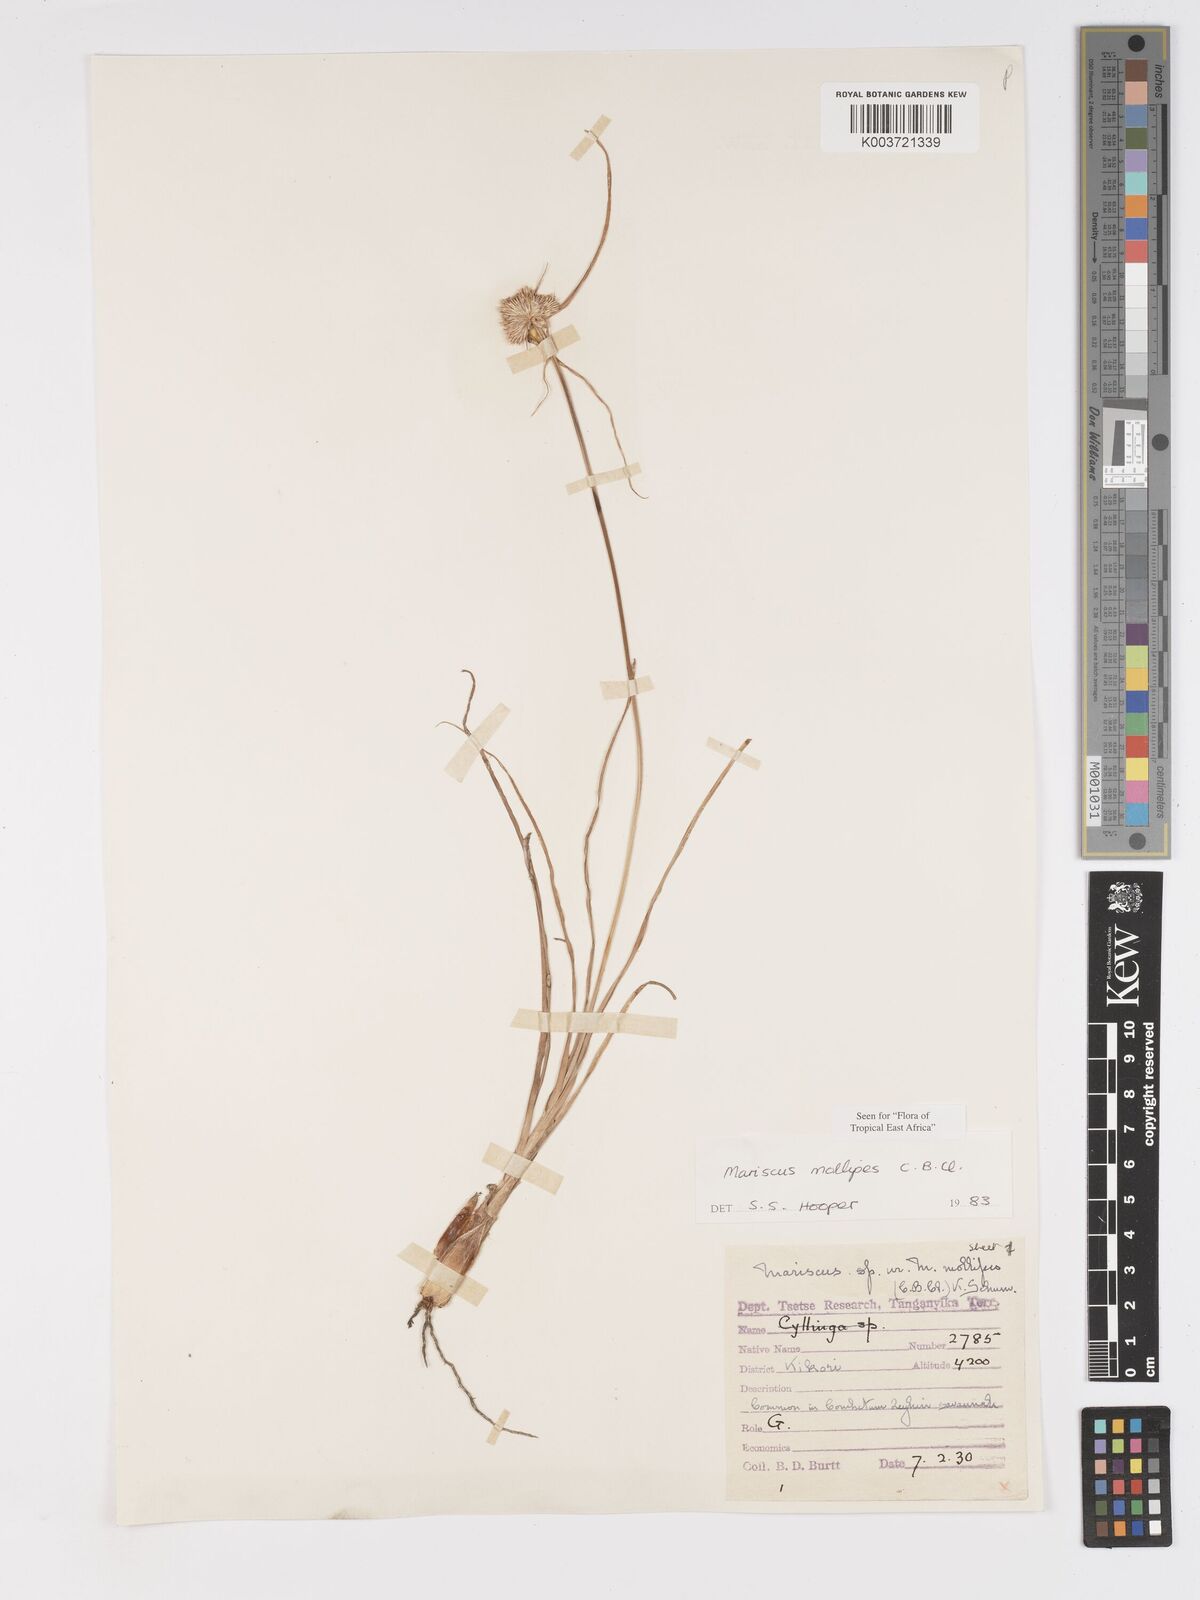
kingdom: Plantae
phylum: Tracheophyta
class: Liliopsida
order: Poales
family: Cyperaceae
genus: Cyperus
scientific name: Cyperus mollipes
